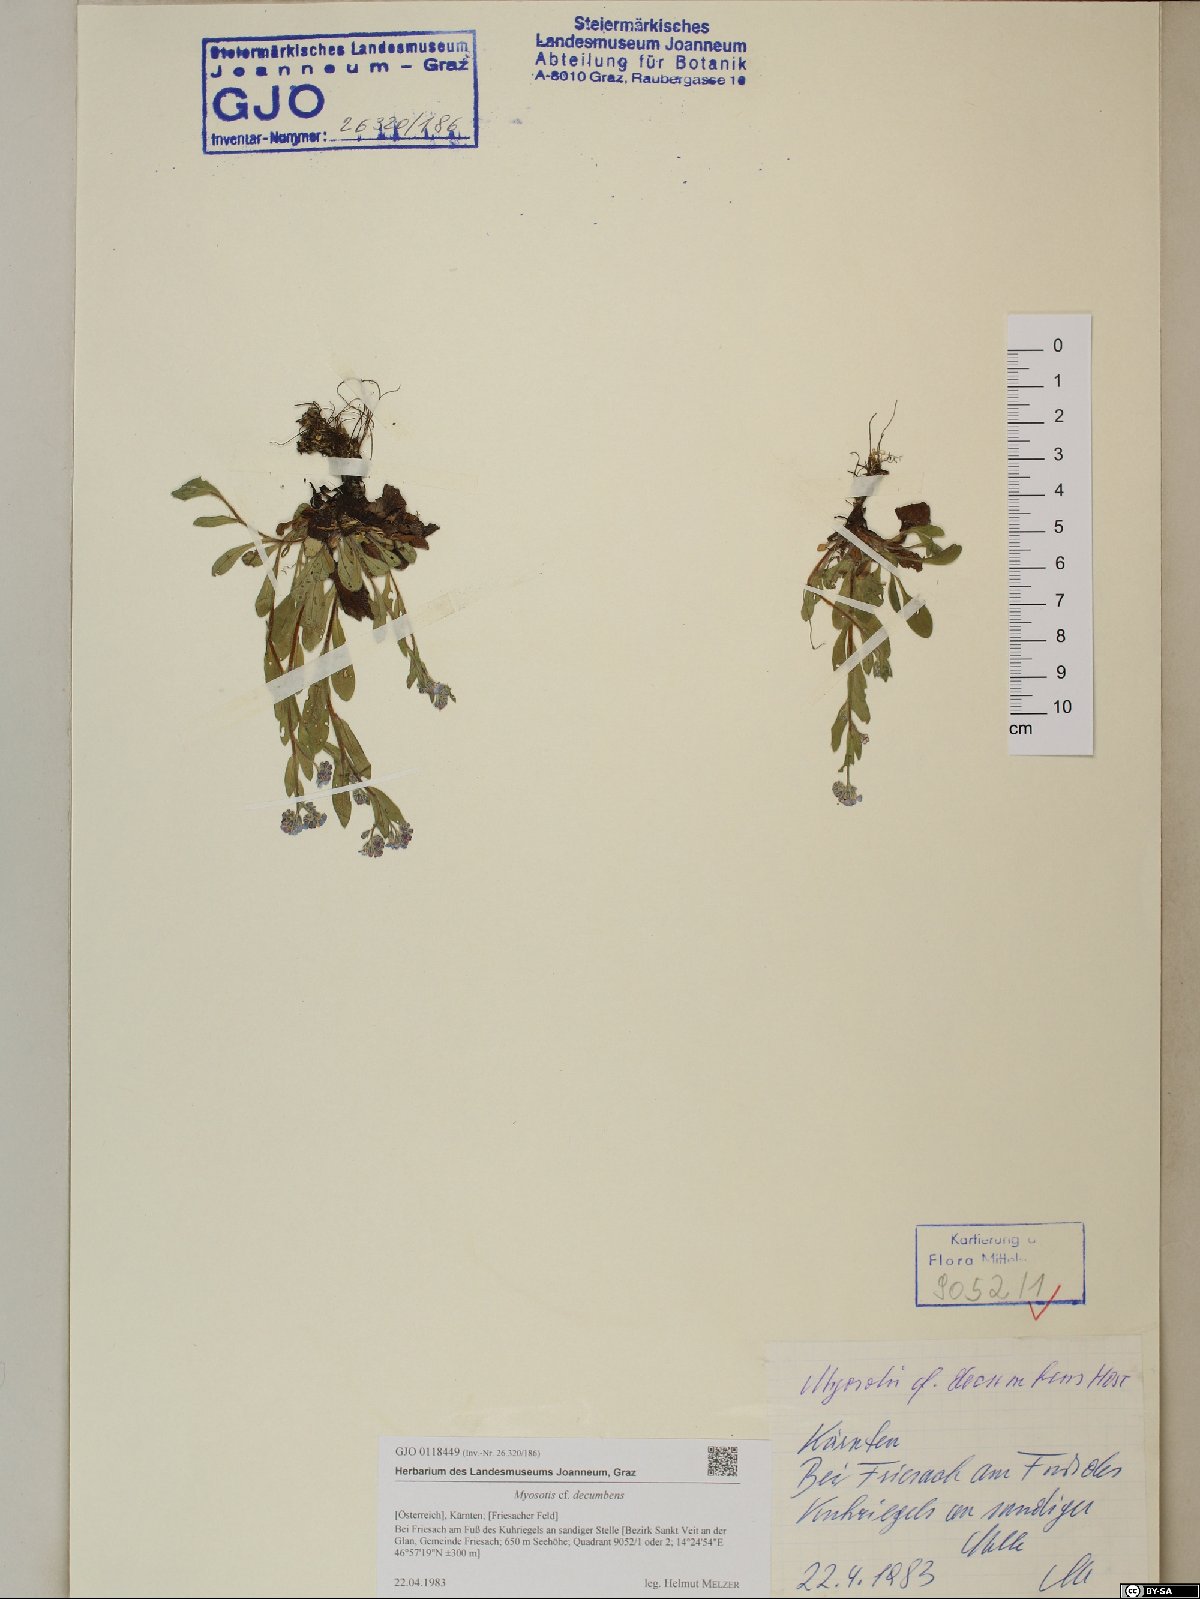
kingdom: Plantae
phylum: Tracheophyta
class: Magnoliopsida
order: Boraginales
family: Boraginaceae
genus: Myosotis
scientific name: Myosotis decumbens
